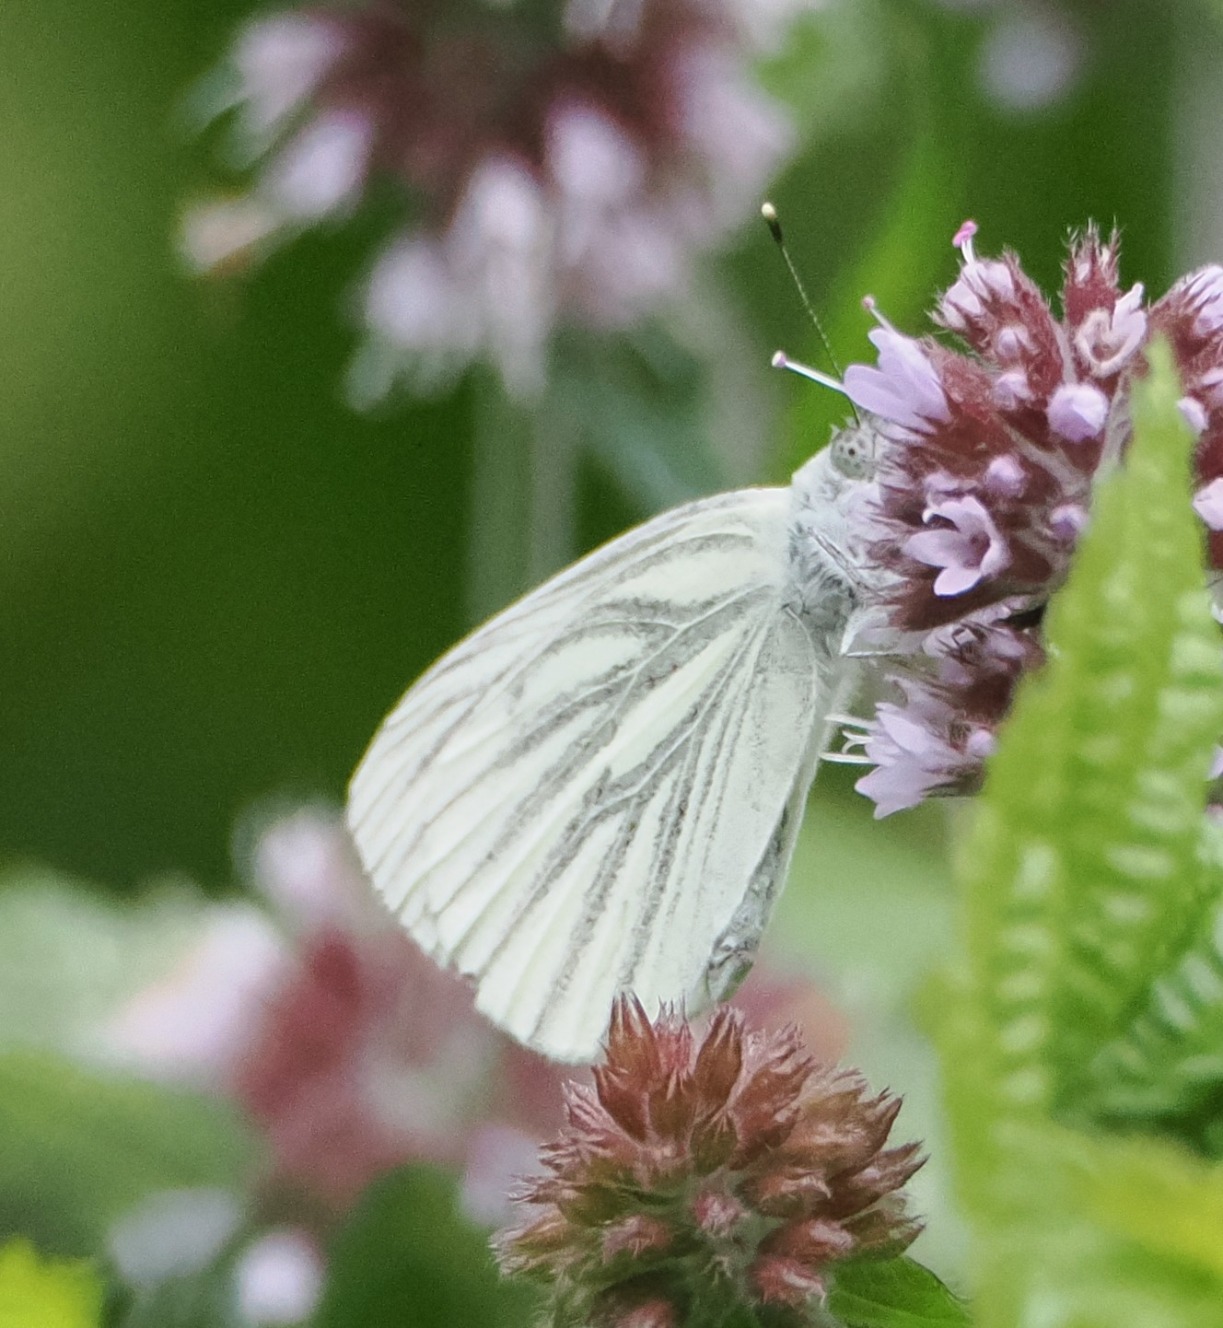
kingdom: Animalia
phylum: Arthropoda
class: Insecta
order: Lepidoptera
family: Pieridae
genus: Pieris
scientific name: Pieris napi
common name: Grønåret kålsommerfugl
